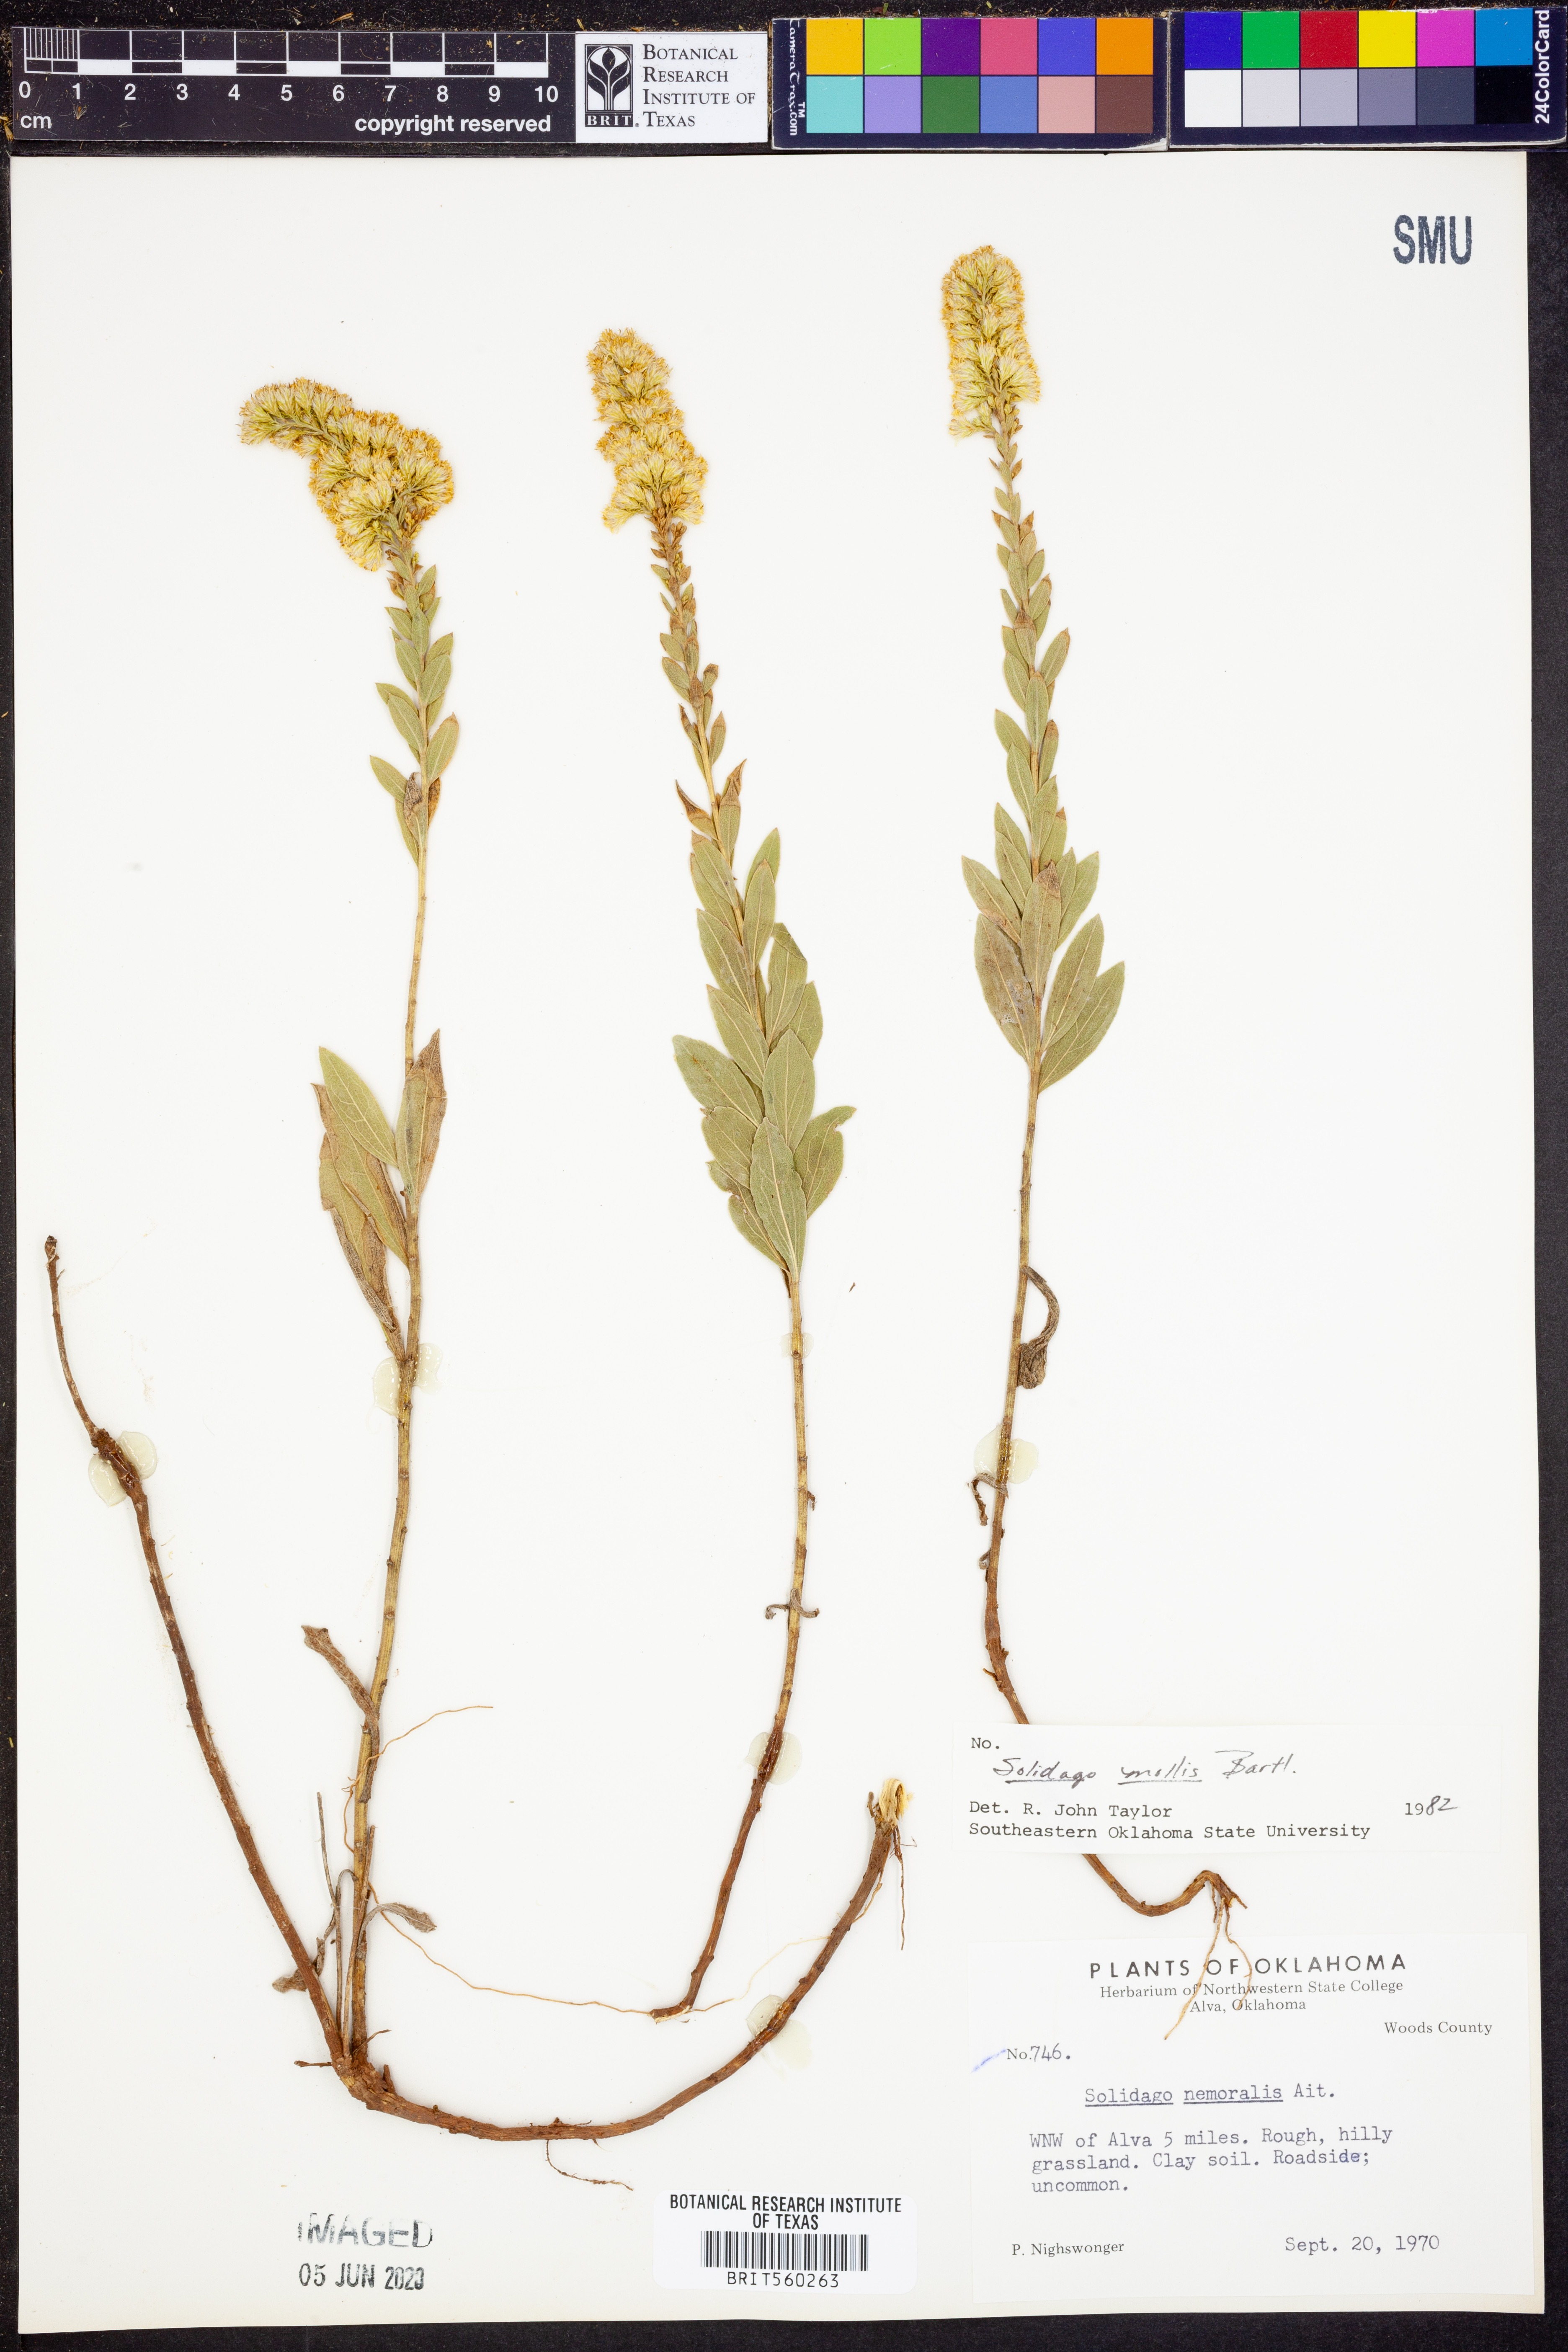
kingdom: Plantae
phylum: Tracheophyta
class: Magnoliopsida
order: Asterales
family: Asteraceae
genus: Solidago
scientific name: Solidago mollis
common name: Ashly goldenrod
